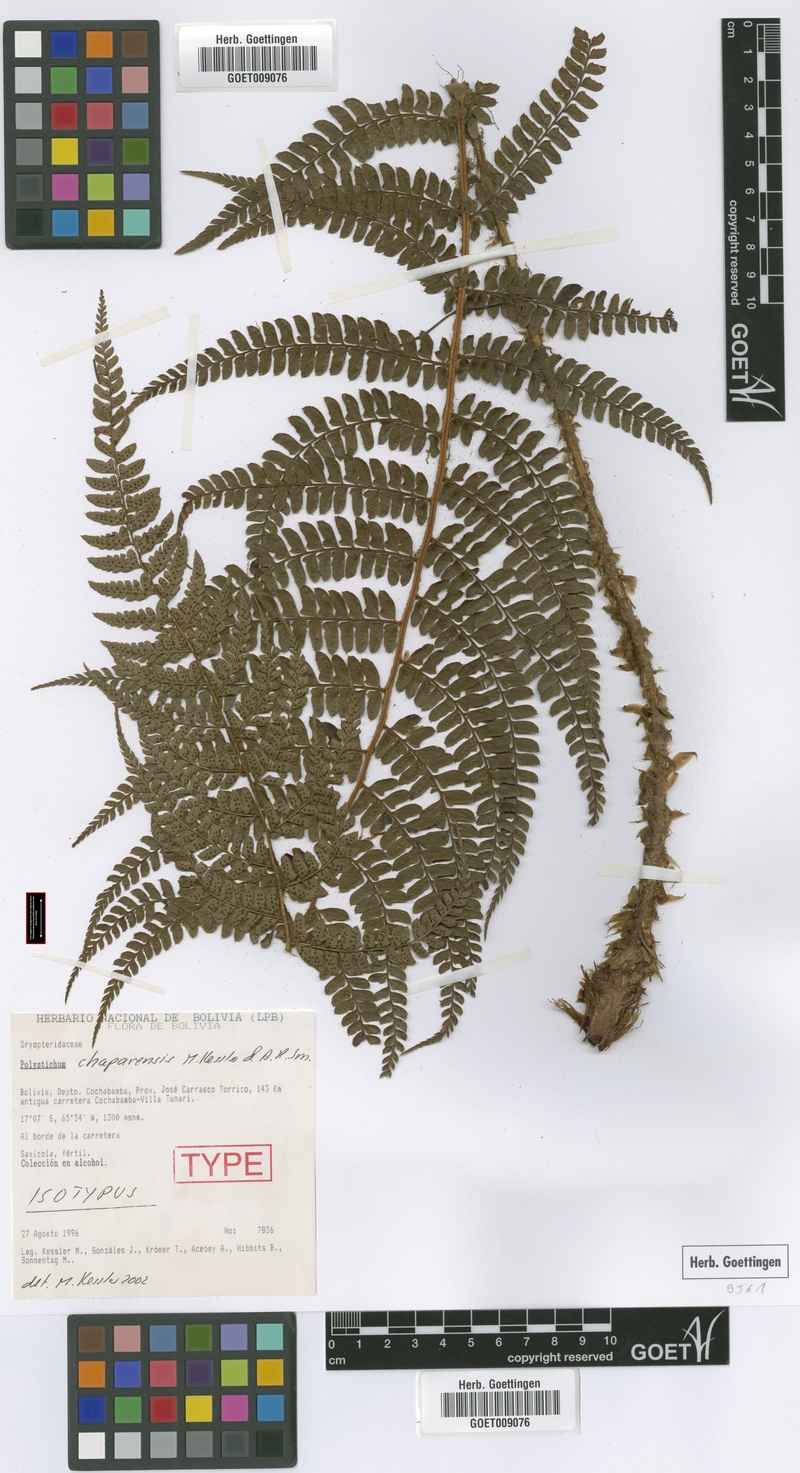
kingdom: Plantae
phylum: Tracheophyta
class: Polypodiopsida
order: Polypodiales
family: Dryopteridaceae
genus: Polystichum
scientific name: Polystichum chaparense
